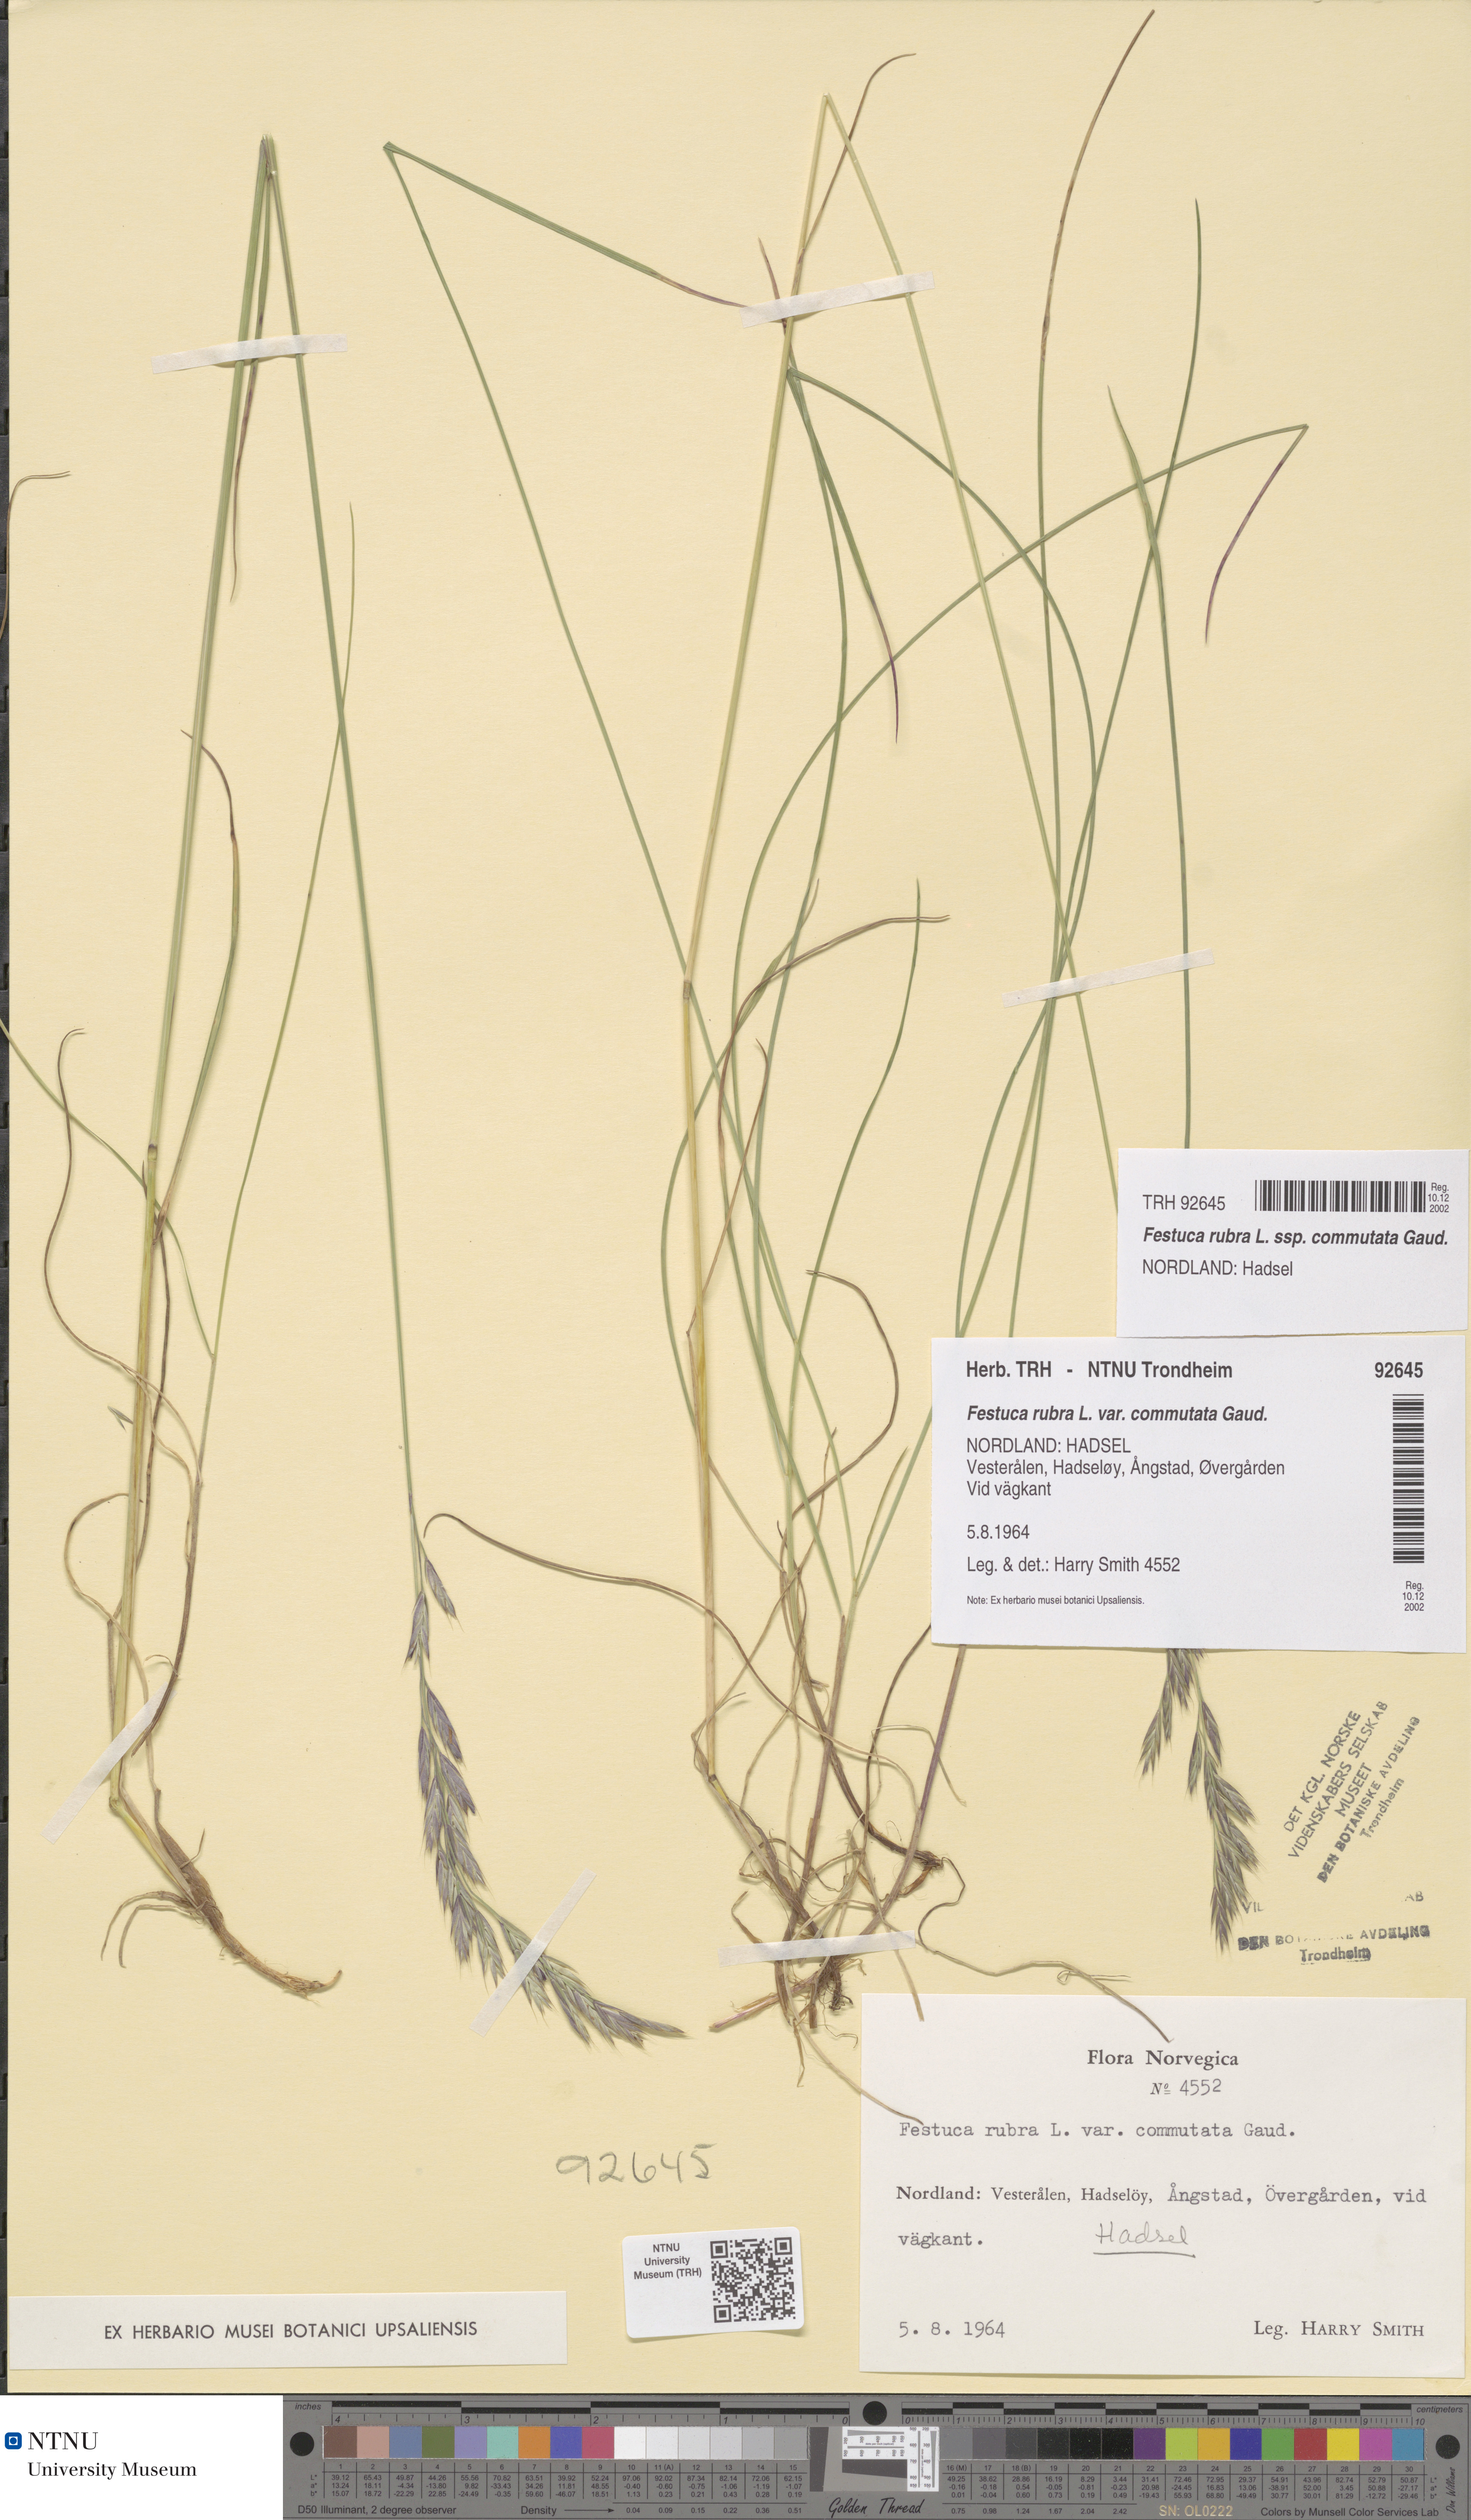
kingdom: Plantae
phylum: Tracheophyta
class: Liliopsida
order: Poales
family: Poaceae
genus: Festuca
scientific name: Festuca rubra
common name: Red fescue
